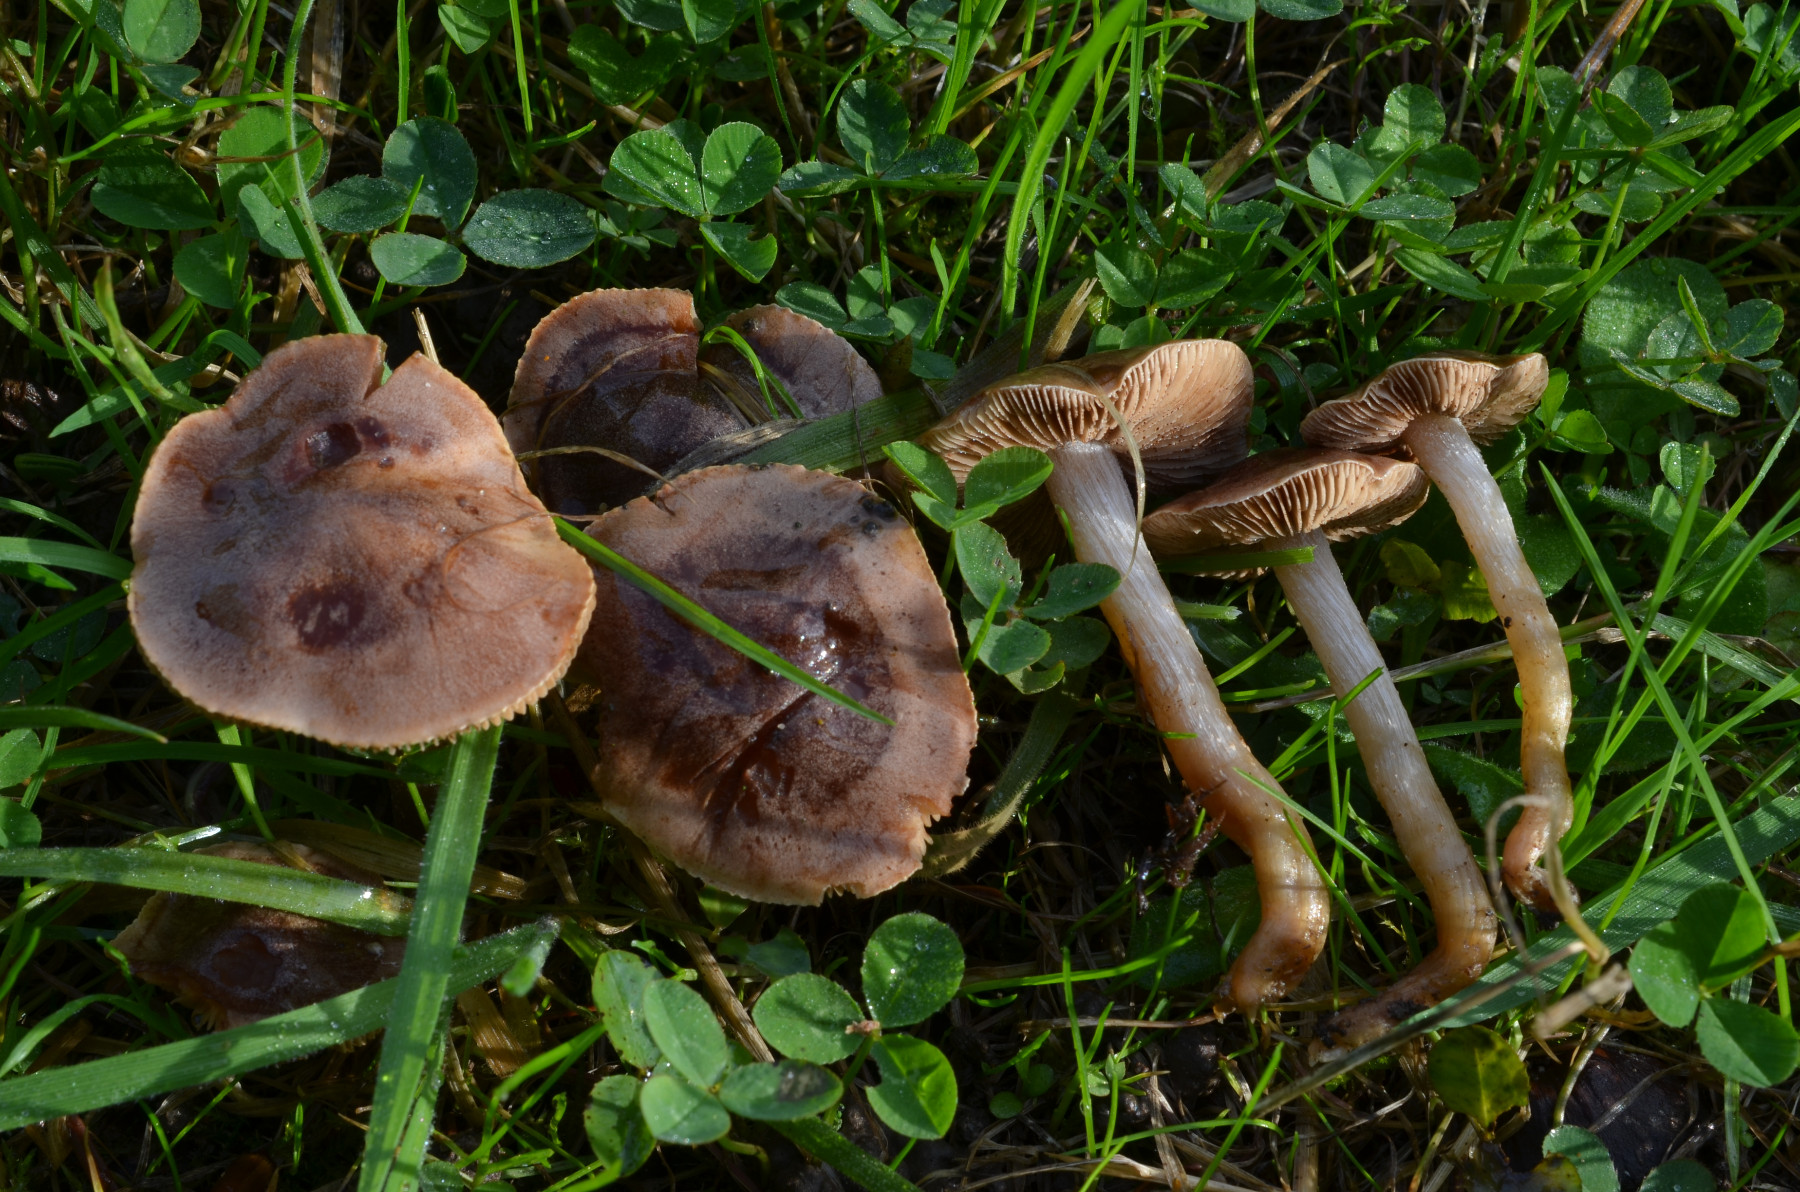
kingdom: Fungi
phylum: Basidiomycota
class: Agaricomycetes
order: Agaricales
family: Hymenogastraceae
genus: Hebeloma
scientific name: Hebeloma theobrominum
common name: rødbrun tåreblad
